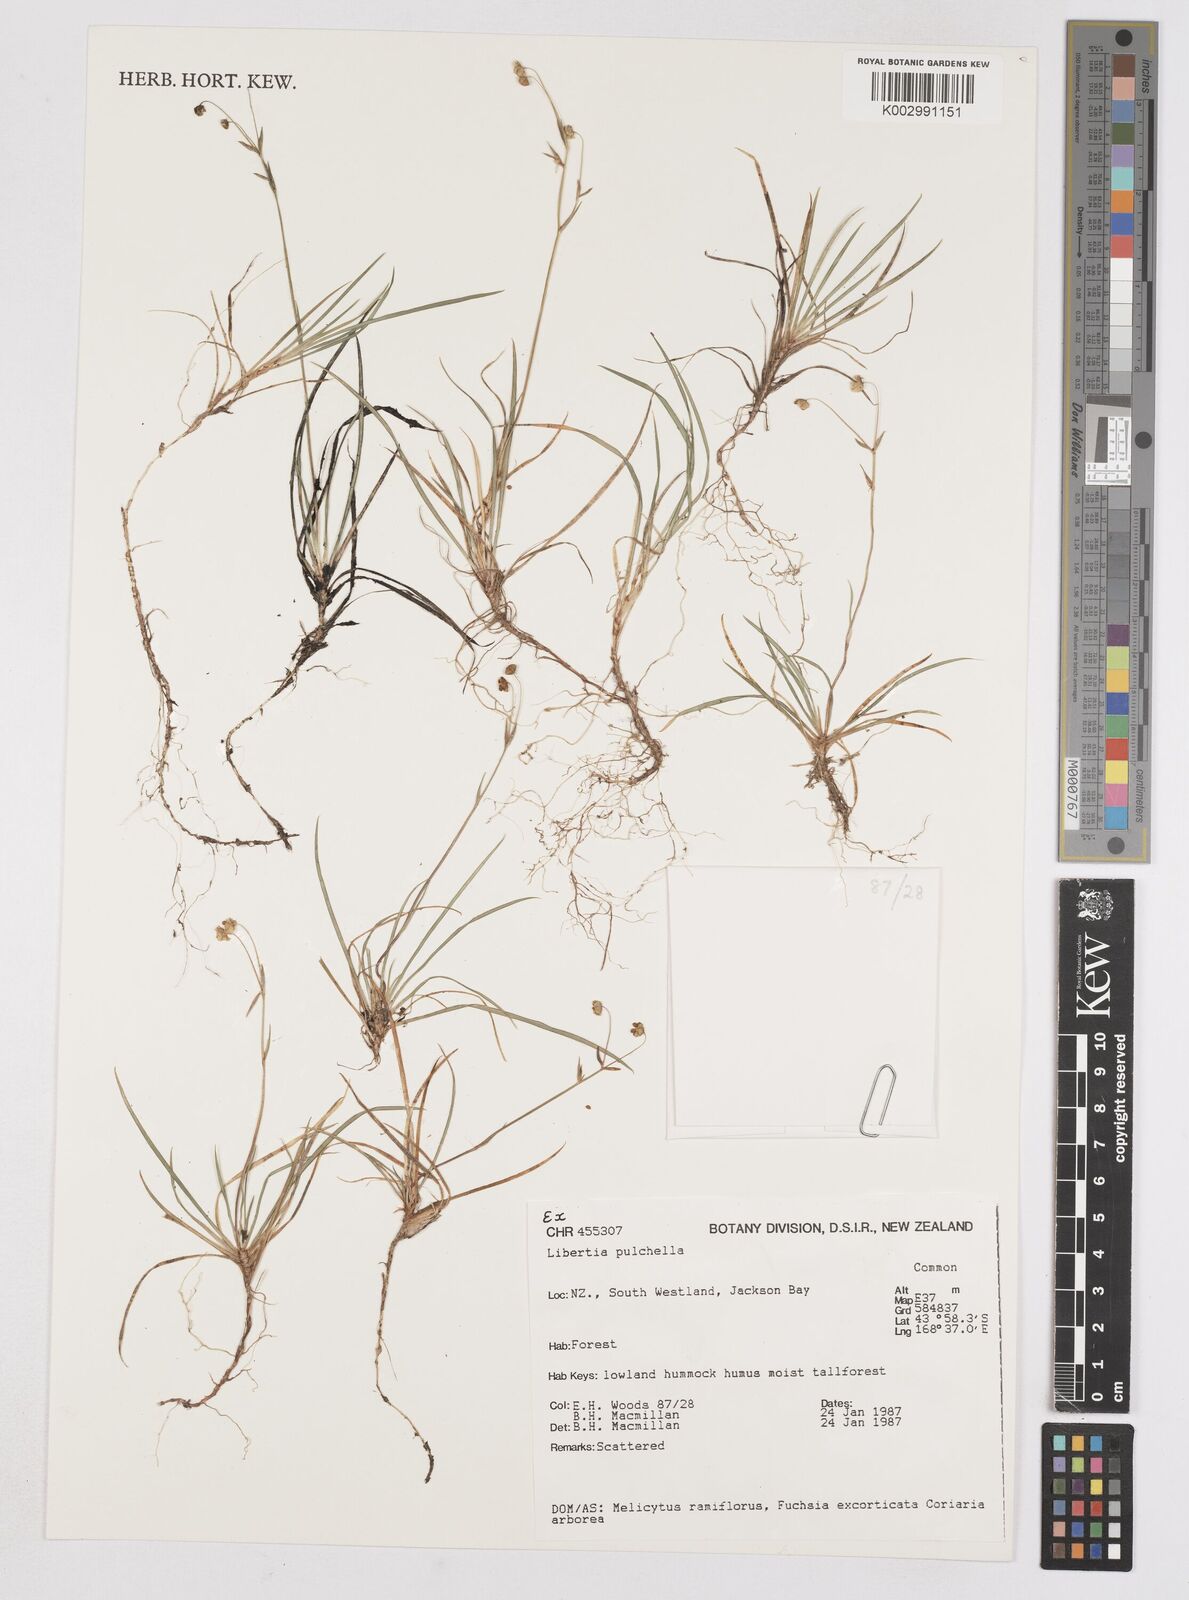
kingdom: Plantae
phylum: Tracheophyta
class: Liliopsida
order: Asparagales
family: Iridaceae
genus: Libertia
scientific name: Libertia pulchella
